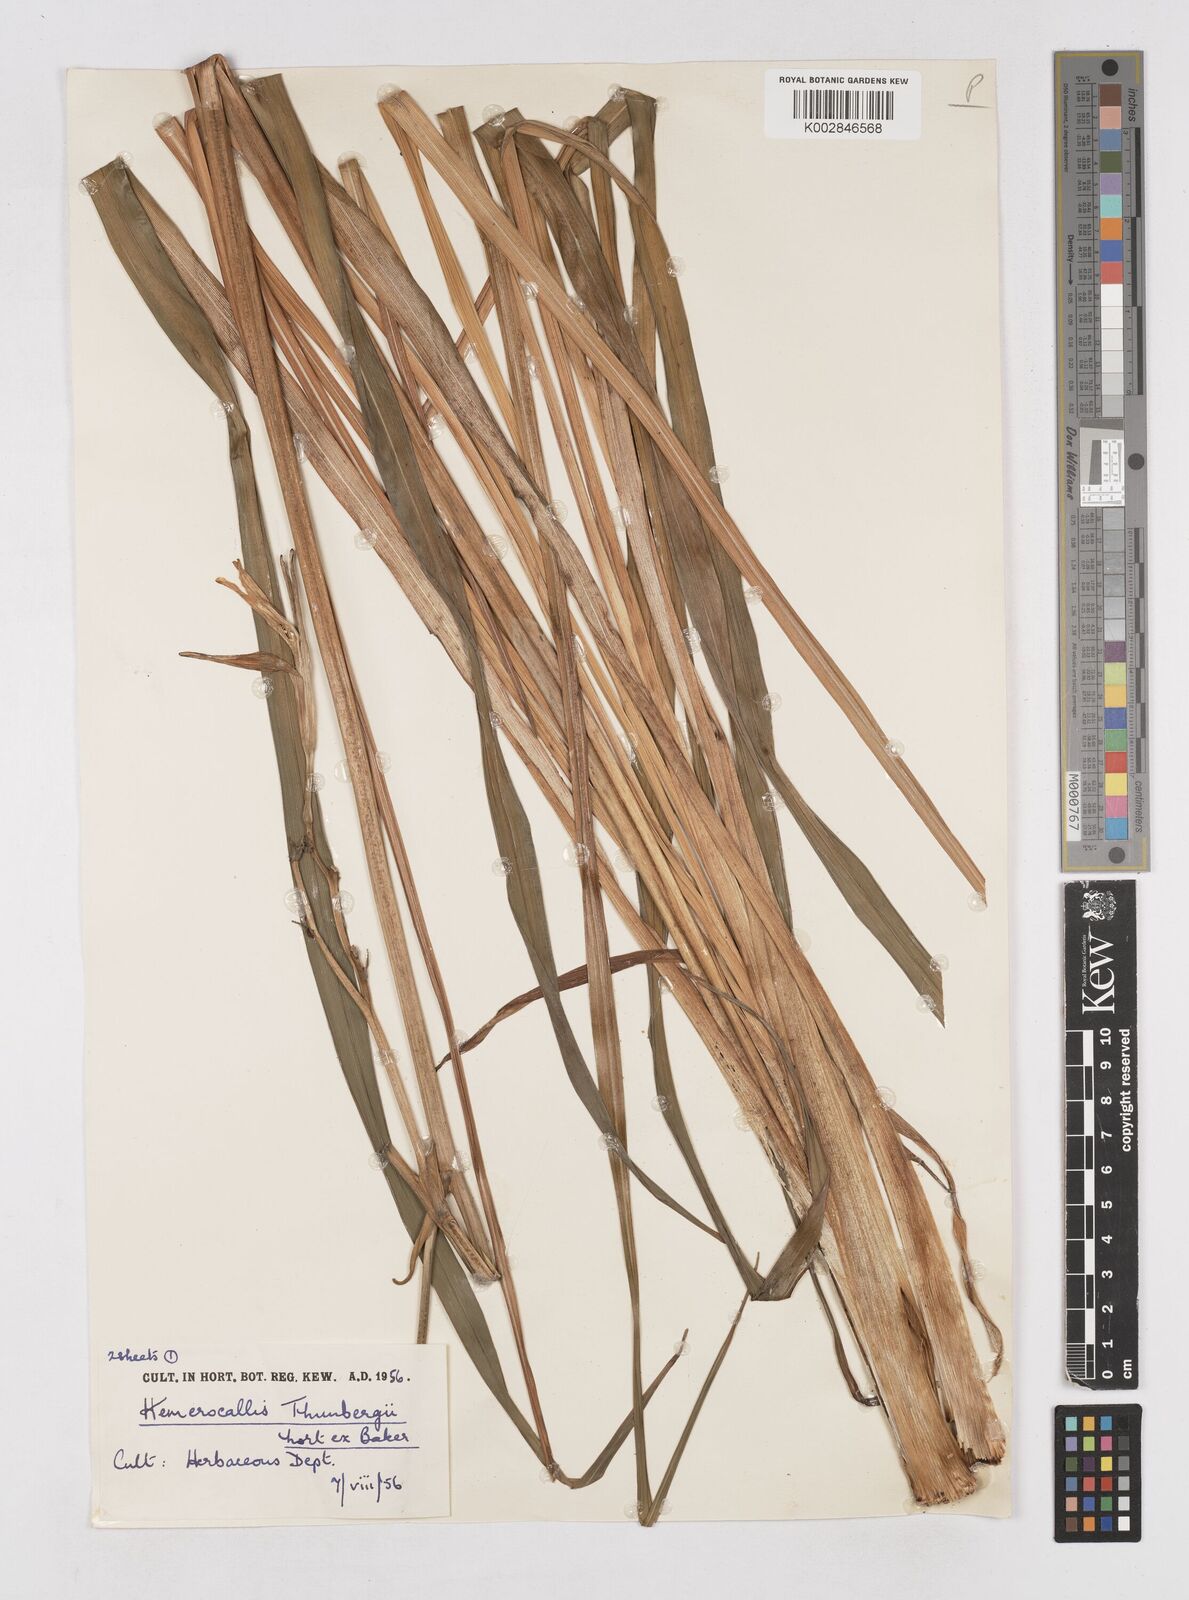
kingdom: Plantae
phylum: Tracheophyta
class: Liliopsida
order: Asparagales
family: Asphodelaceae
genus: Hemerocallis
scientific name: Hemerocallis thunbergii
